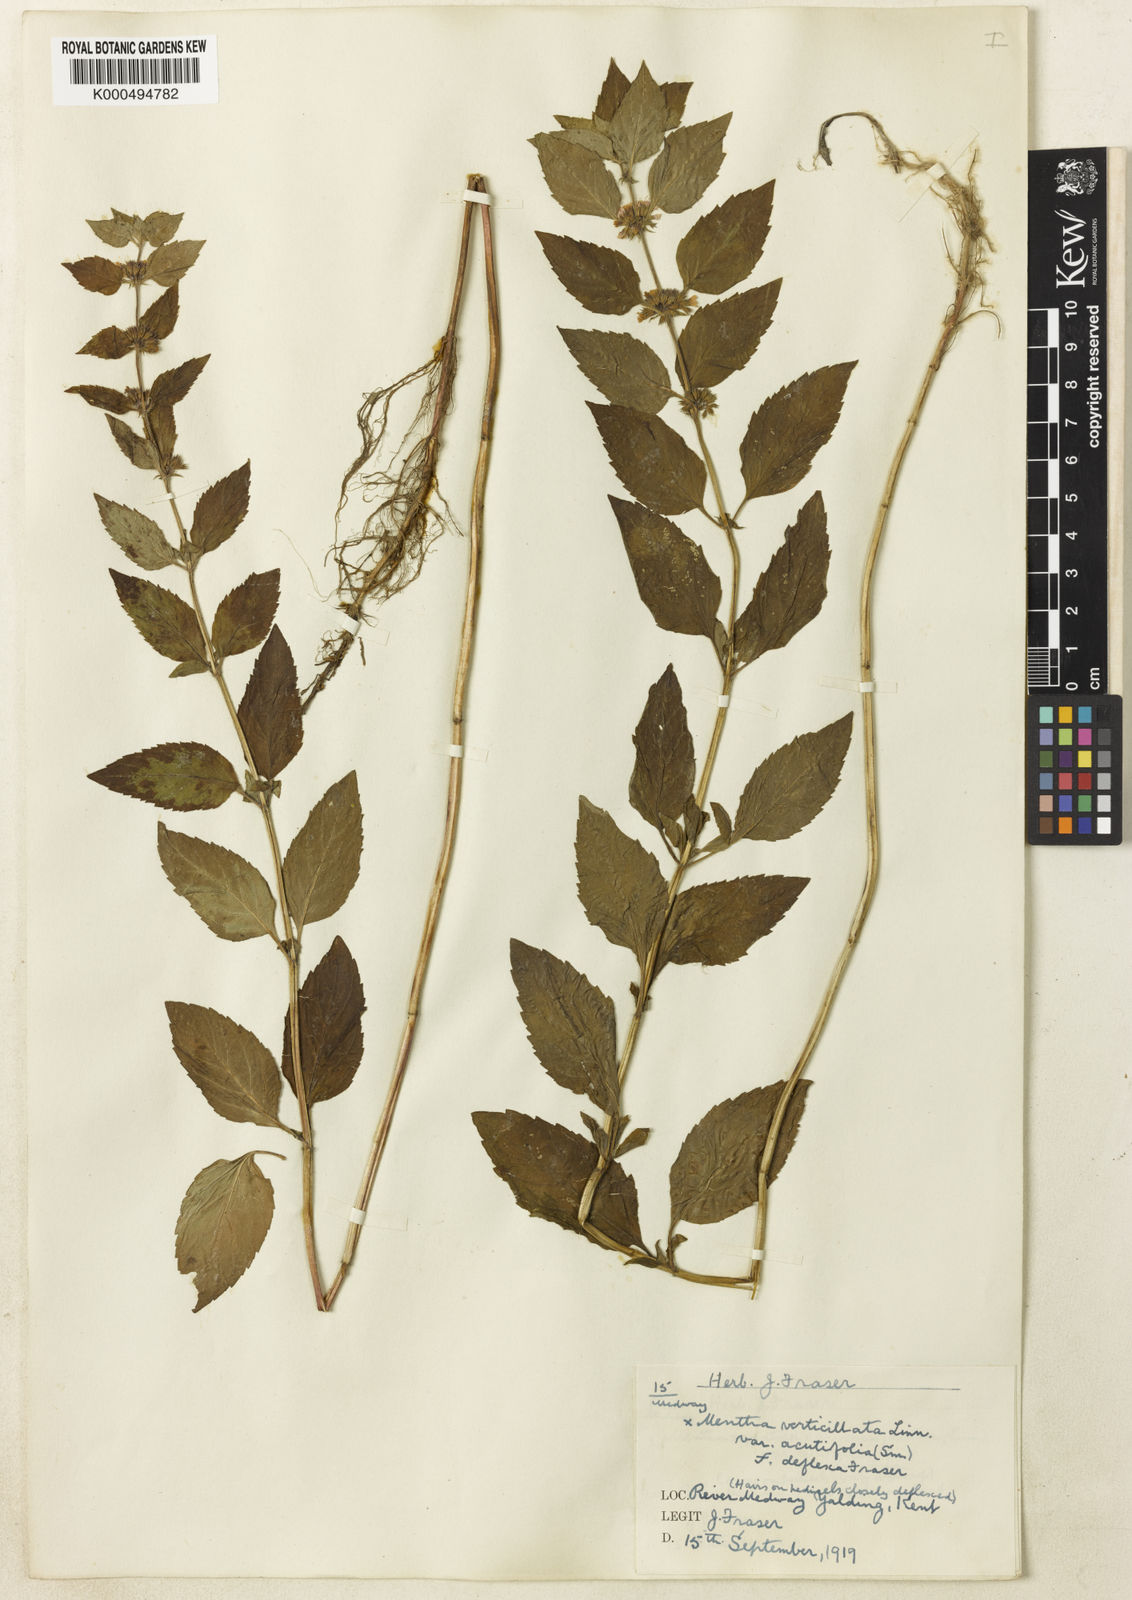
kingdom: Plantae
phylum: Tracheophyta
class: Magnoliopsida
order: Lamiales
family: Lamiaceae
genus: Mentha
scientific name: Mentha verticillata
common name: Mint
